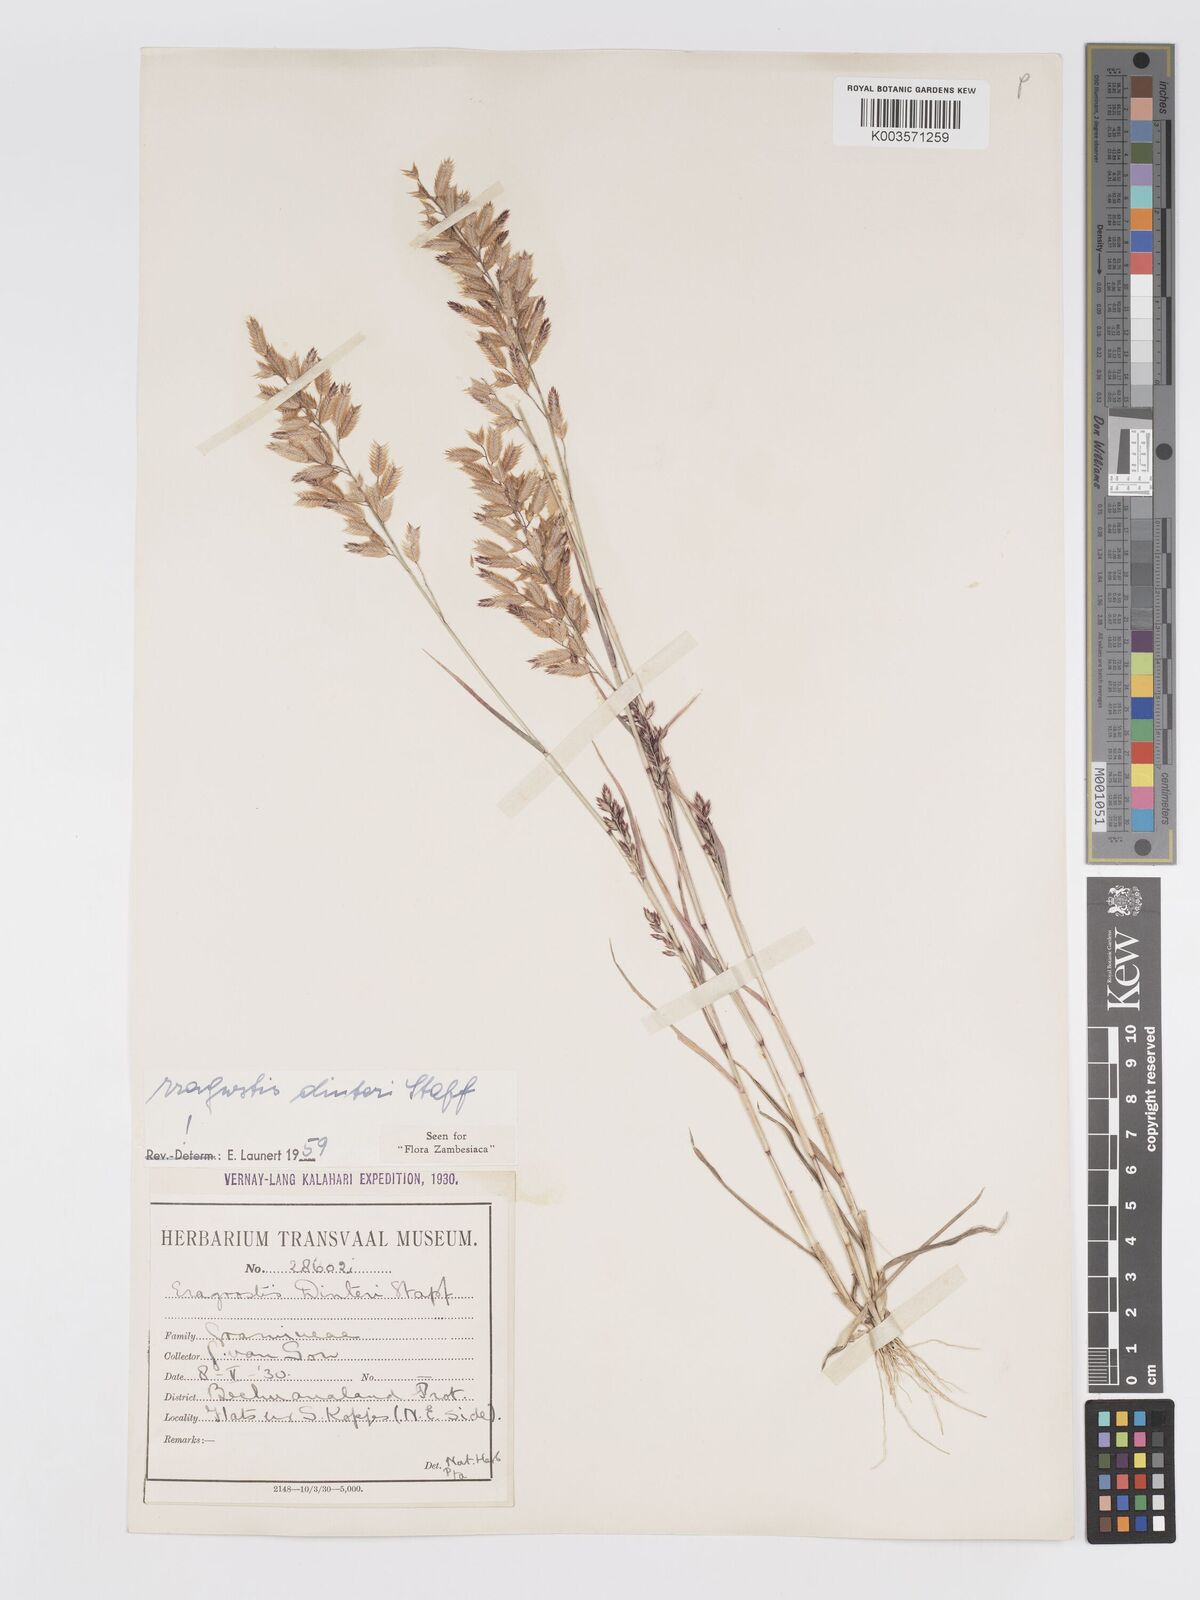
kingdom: Plantae
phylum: Tracheophyta
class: Liliopsida
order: Poales
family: Poaceae
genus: Eragrostis
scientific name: Eragrostis dinteri
